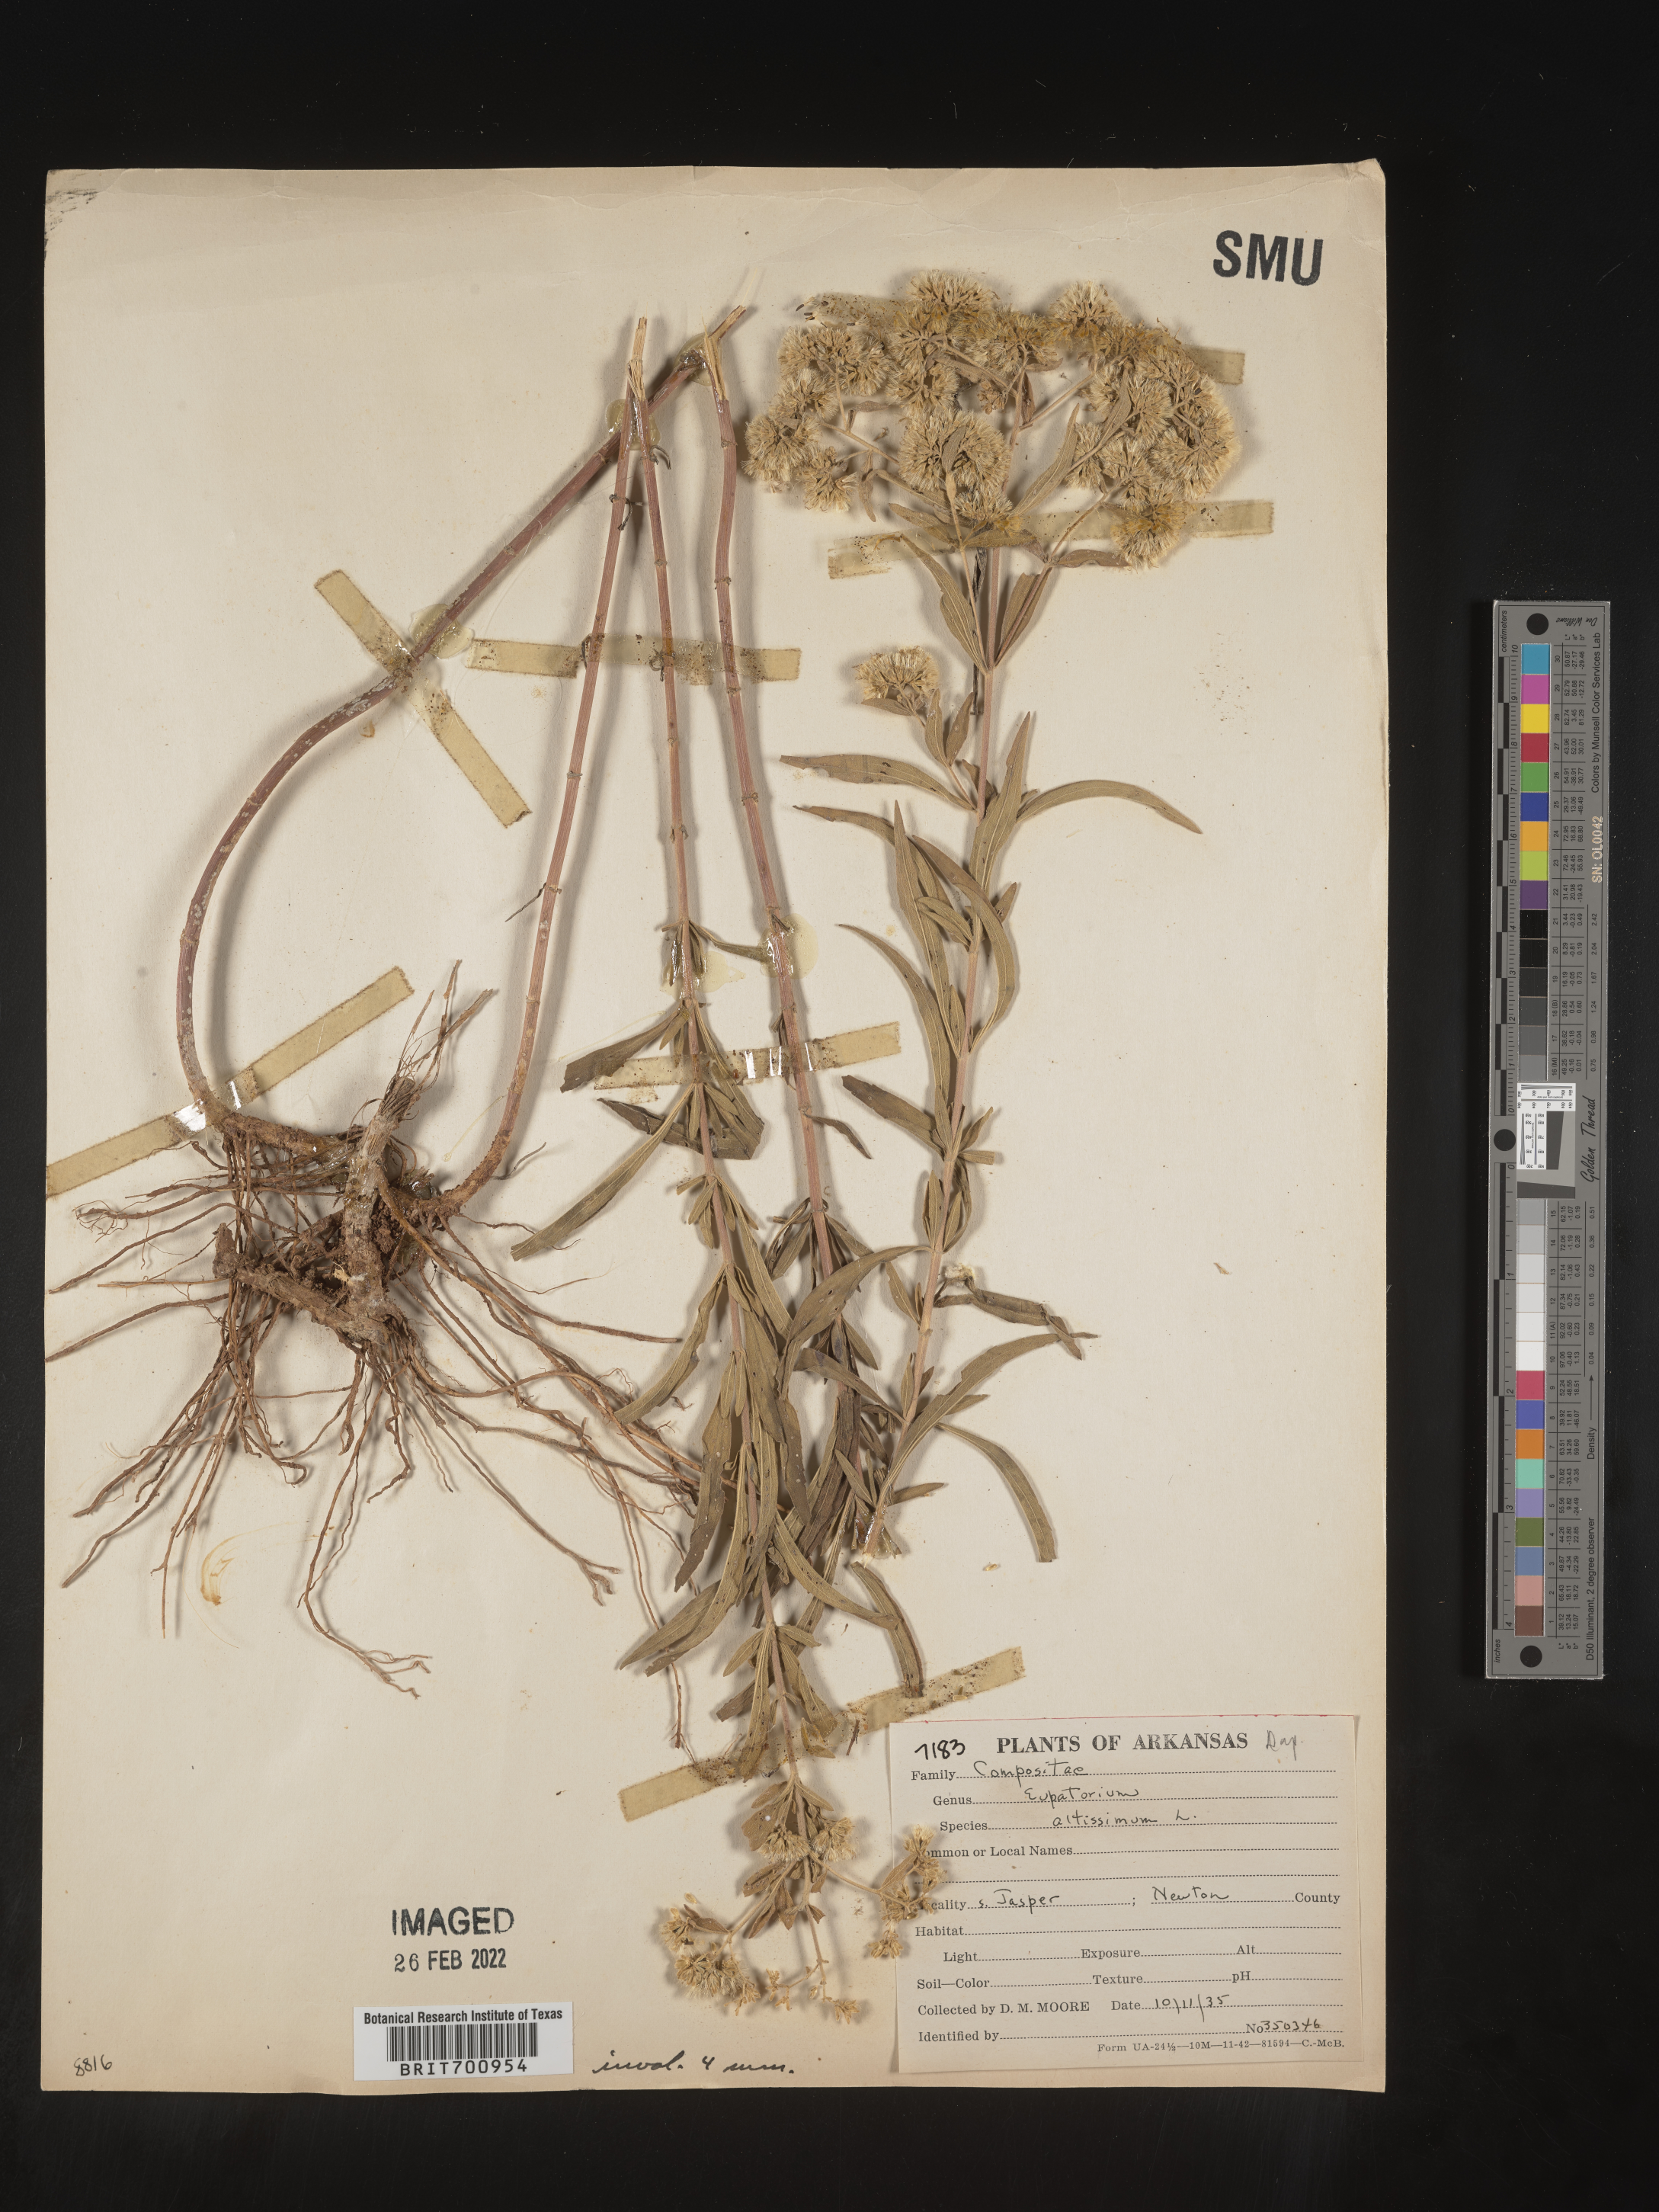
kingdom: Plantae
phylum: Tracheophyta
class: Magnoliopsida
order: Asterales
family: Asteraceae
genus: Eupatorium
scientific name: Eupatorium altissimum
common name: Tall thoroughwort
